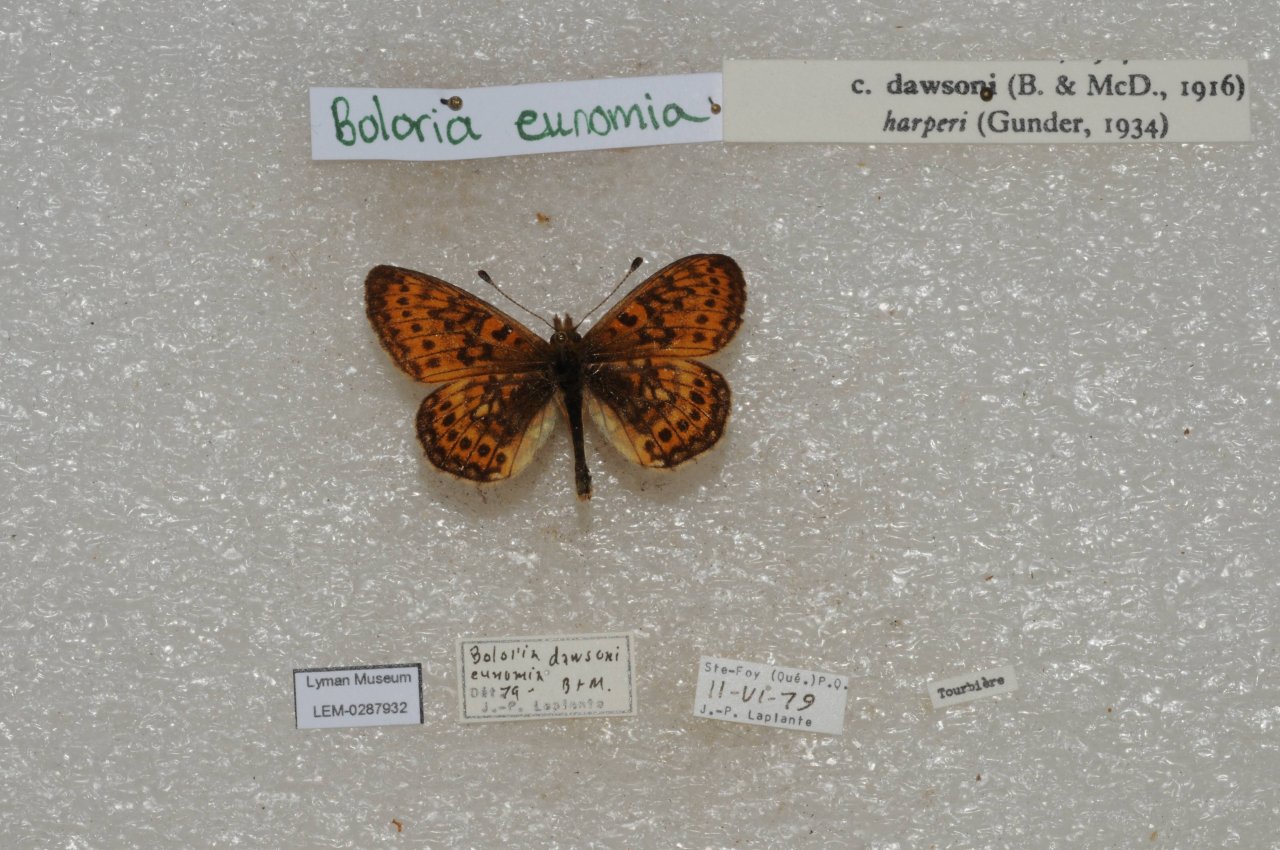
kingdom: Animalia
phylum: Arthropoda
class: Insecta
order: Lepidoptera
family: Nymphalidae
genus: Boloria
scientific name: Boloria eunomia
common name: Bog Fritillary
